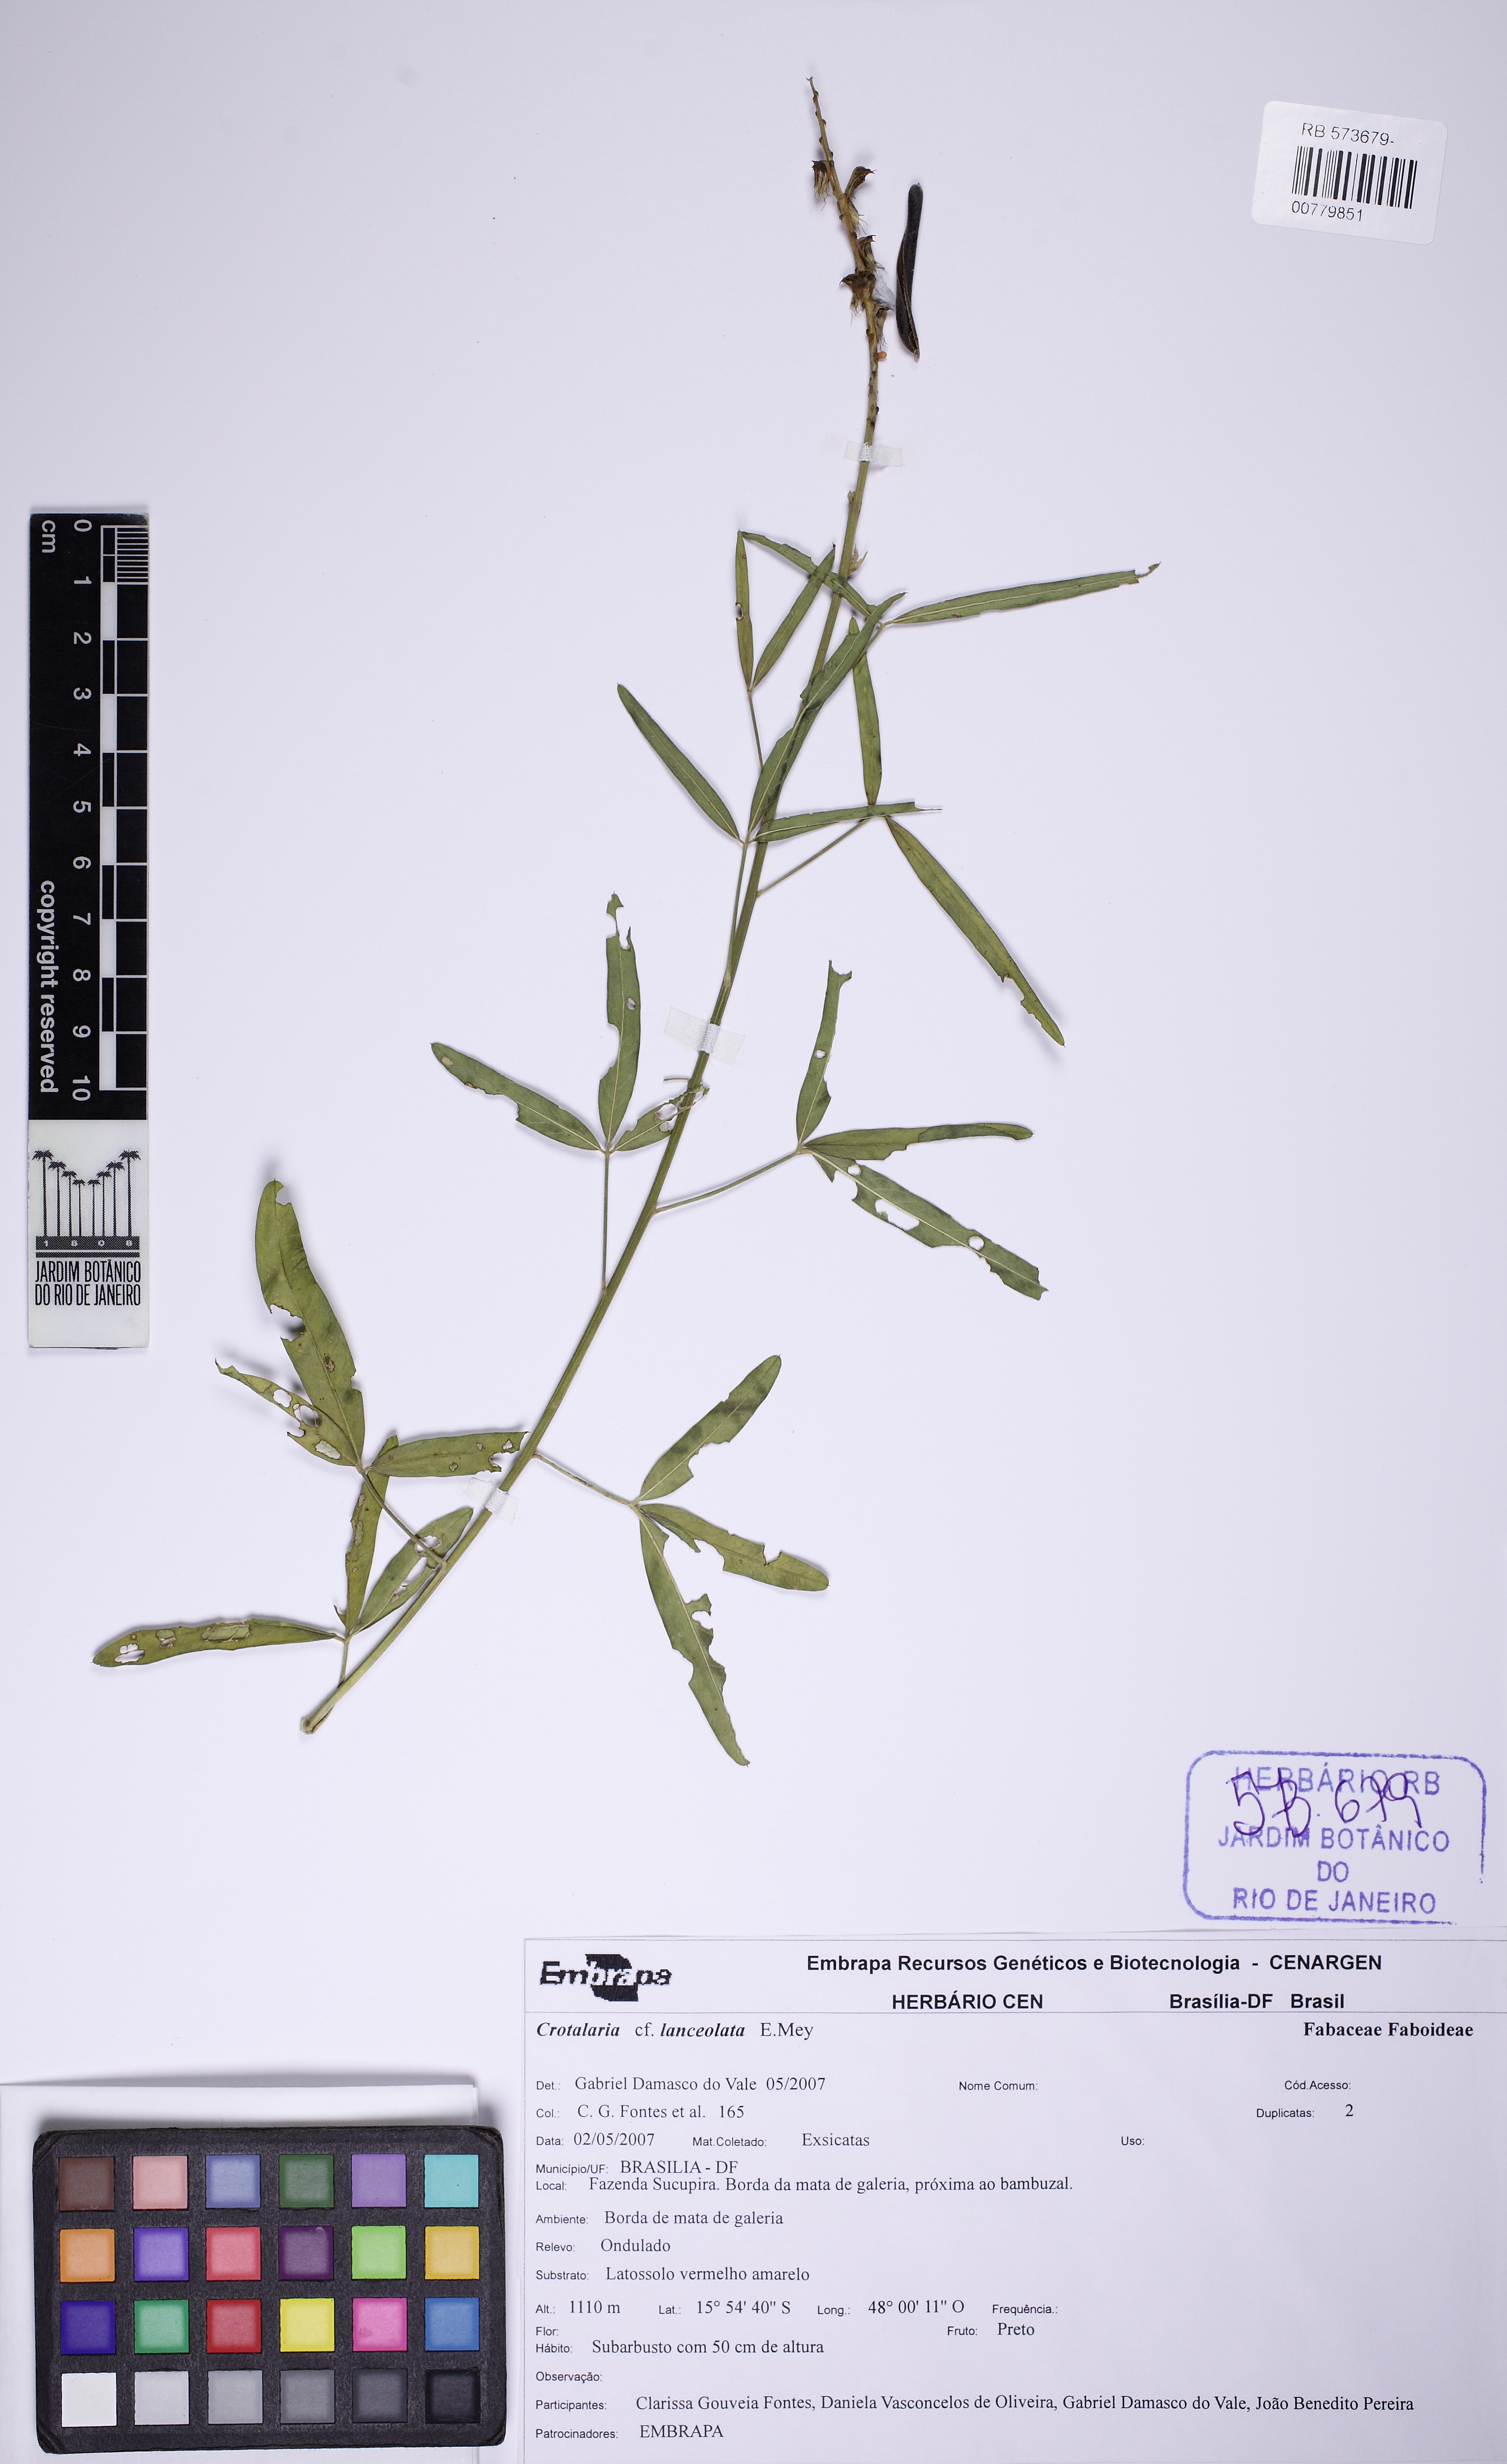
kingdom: Plantae
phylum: Tracheophyta
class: Magnoliopsida
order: Fabales
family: Fabaceae
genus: Crotalaria
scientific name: Crotalaria lanceolata
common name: Lanceleaf rattlebox
